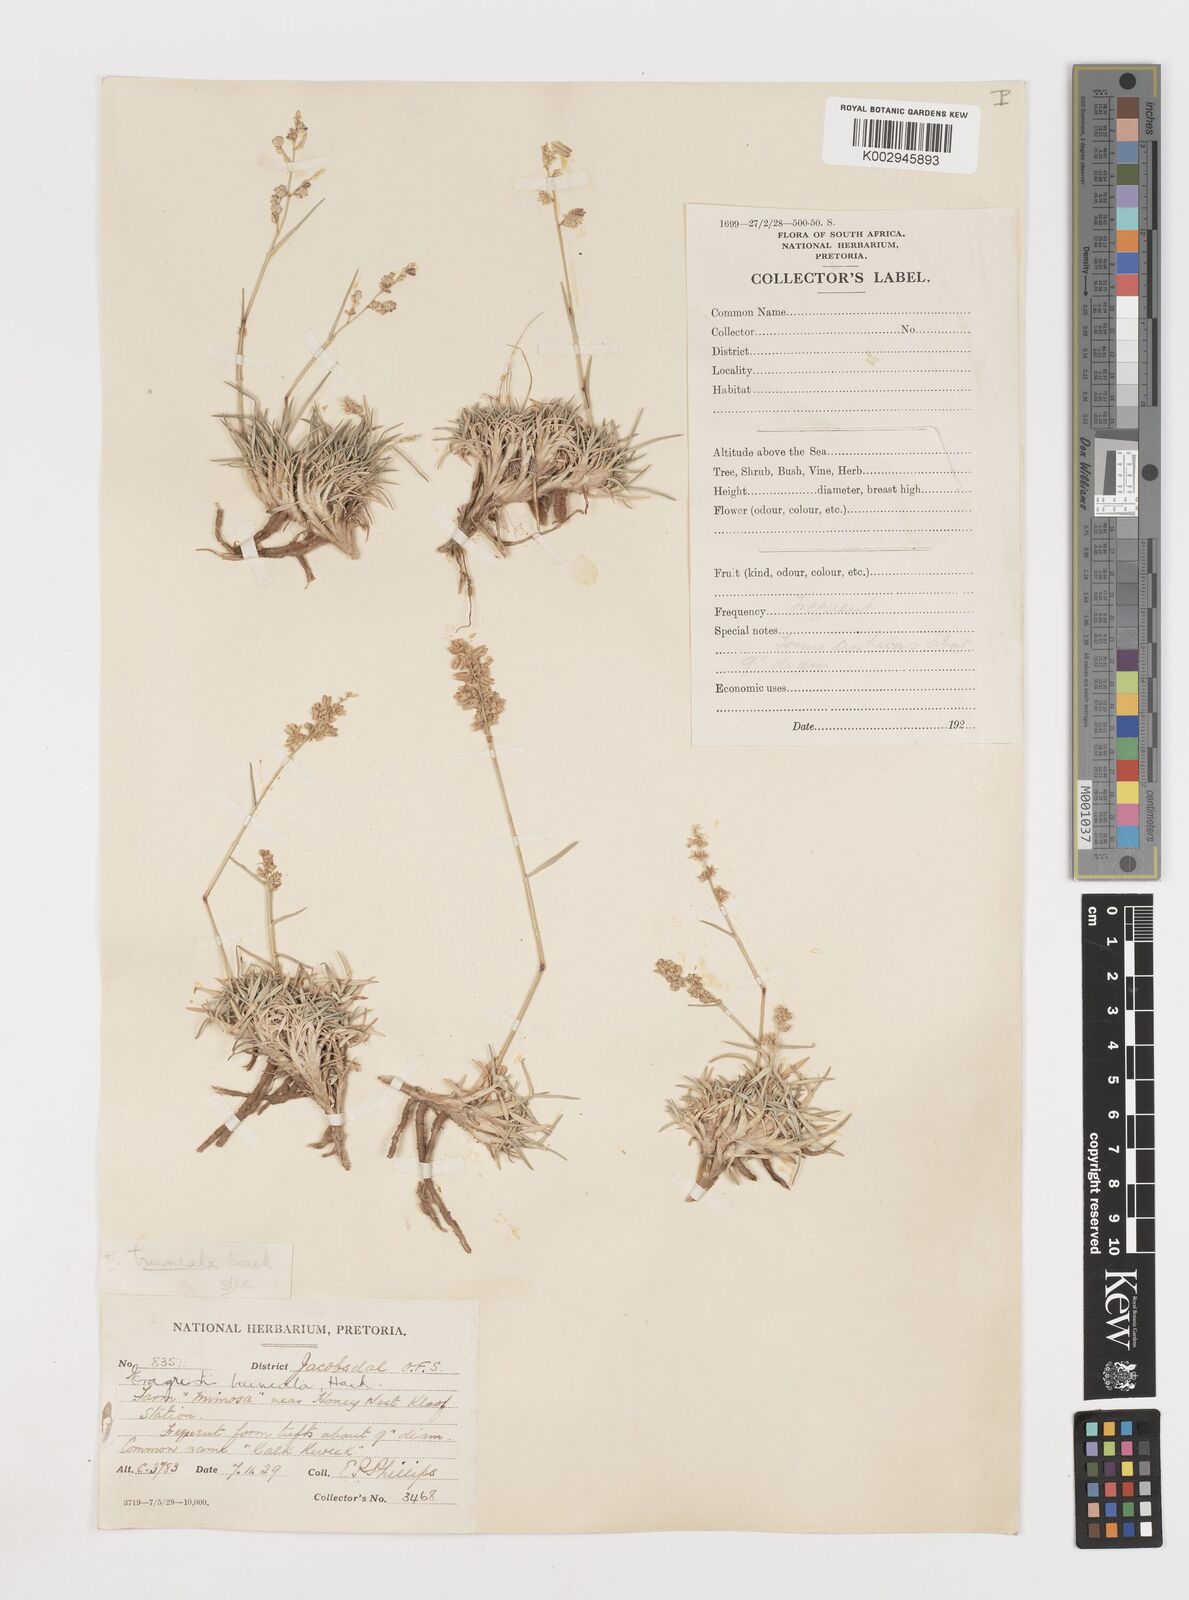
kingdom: Plantae
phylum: Tracheophyta
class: Liliopsida
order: Poales
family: Poaceae
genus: Eragrostis
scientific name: Eragrostis truncata
